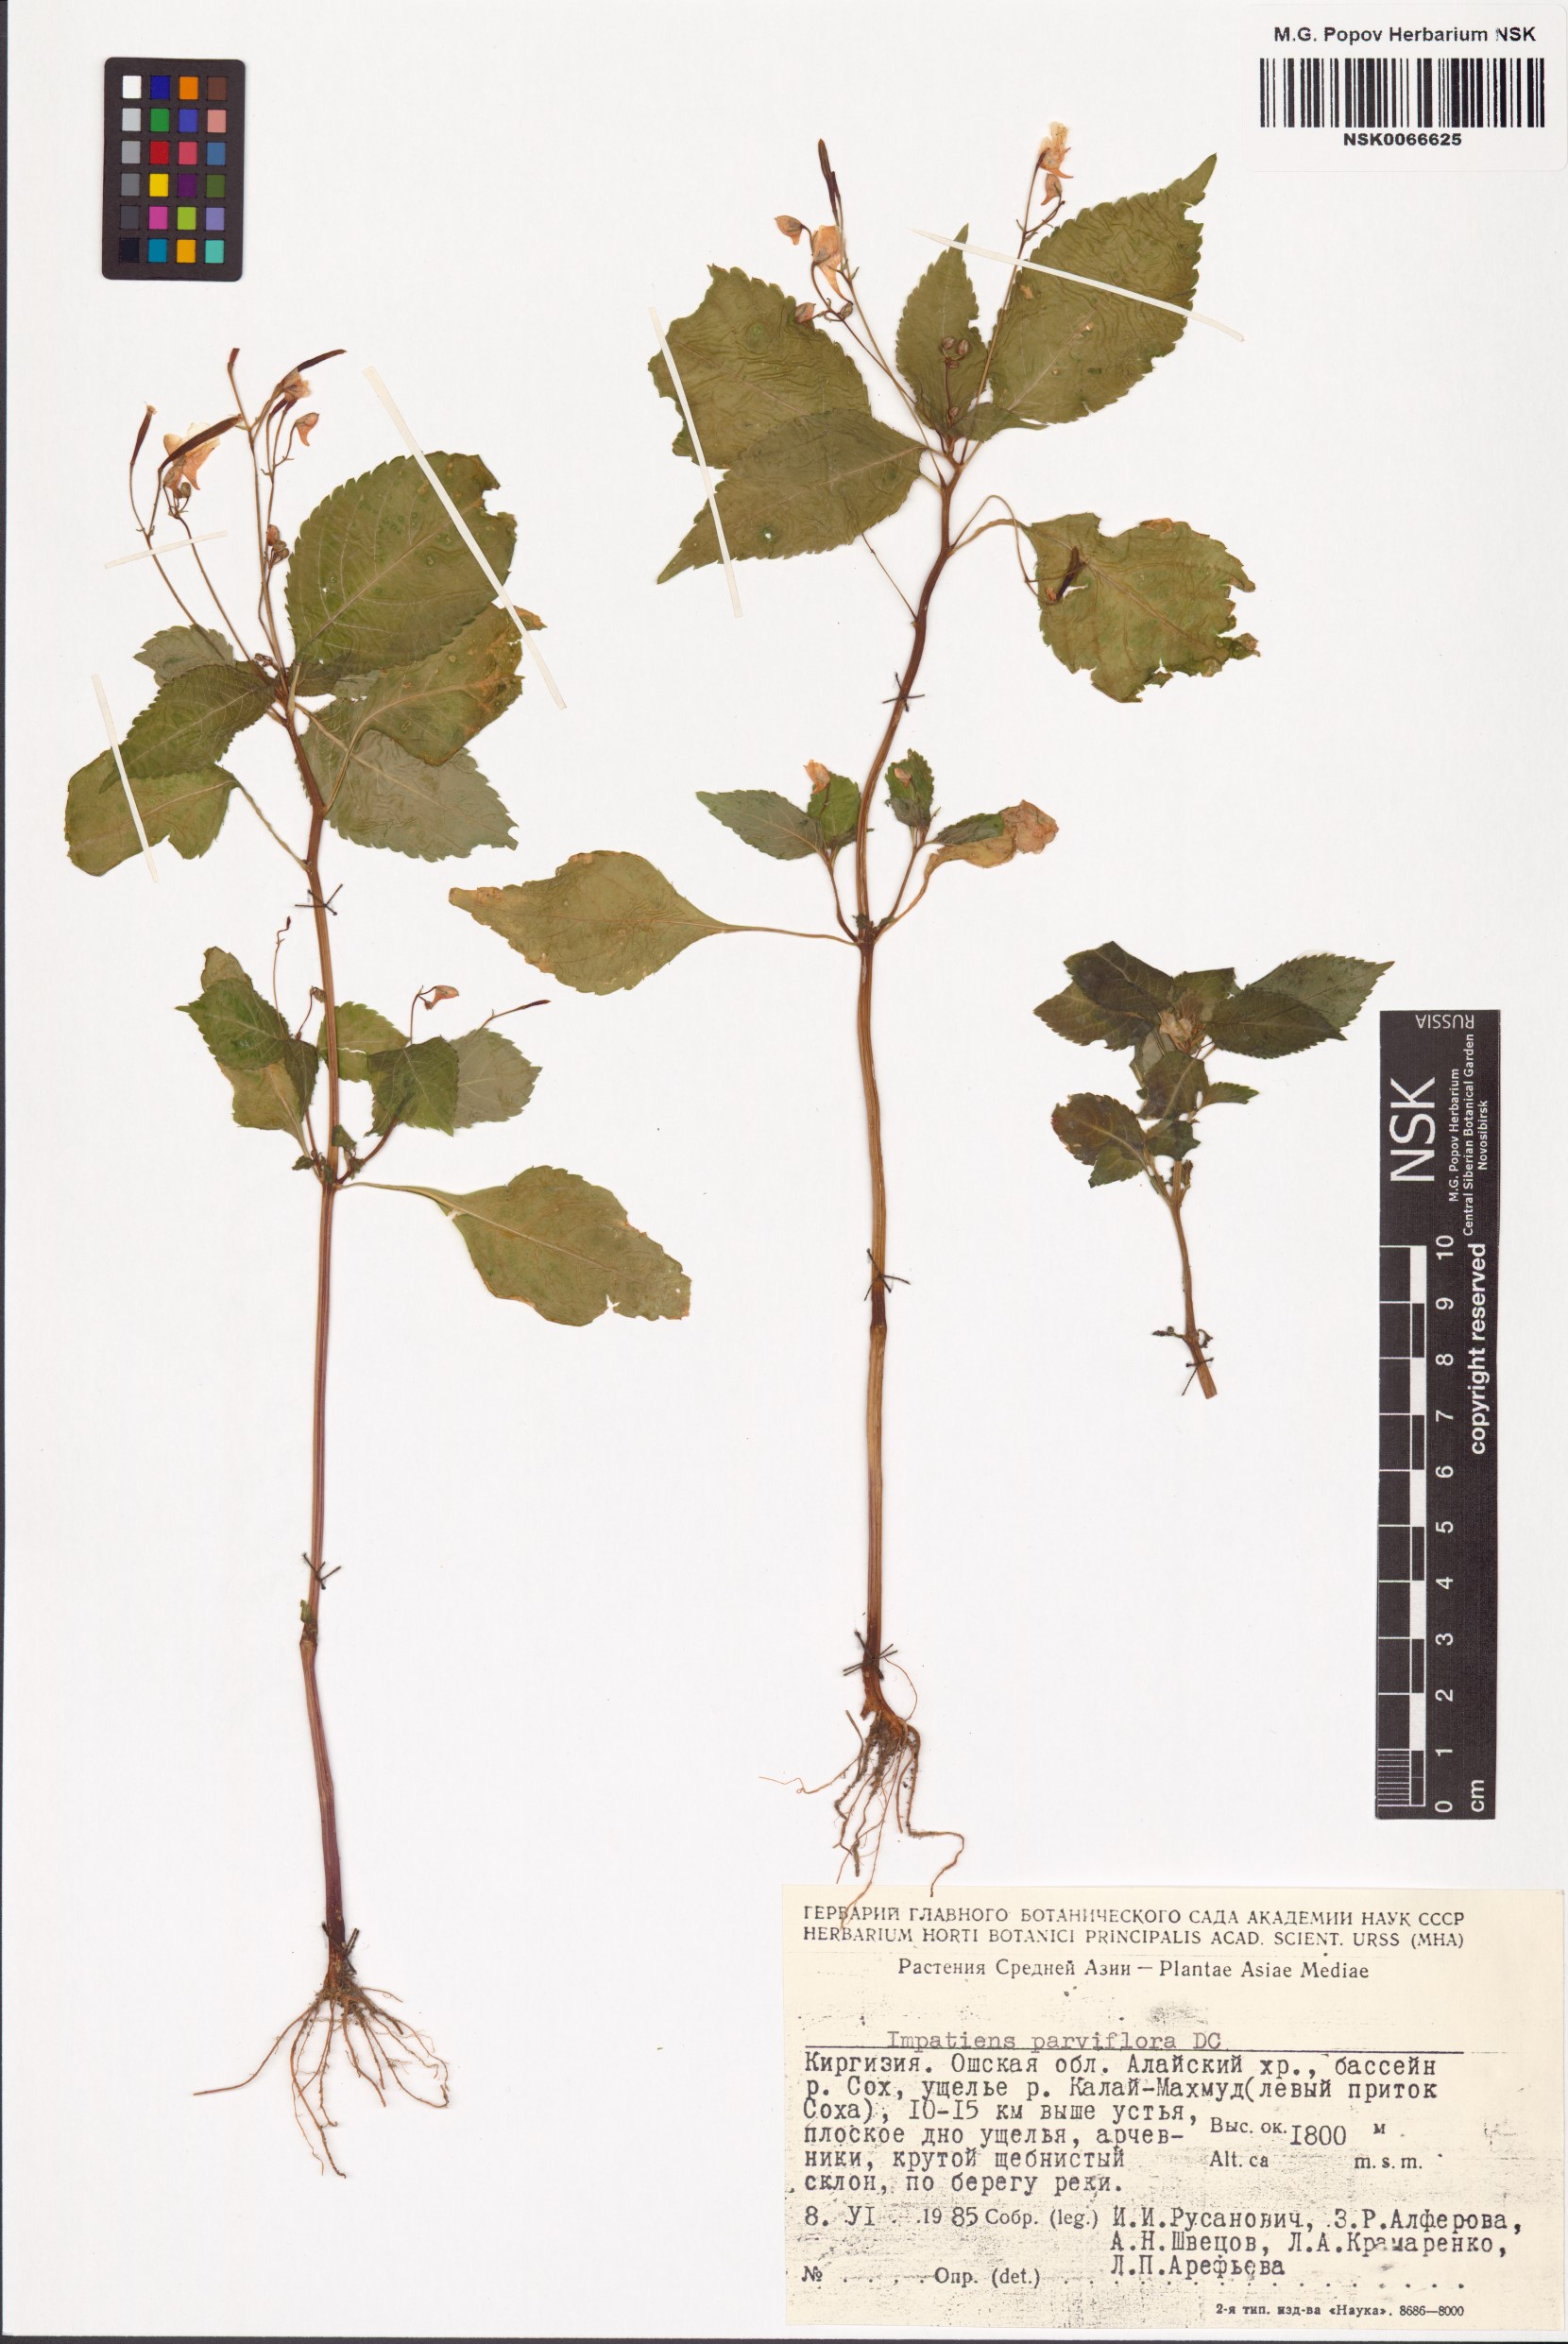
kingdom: Plantae
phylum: Tracheophyta
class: Magnoliopsida
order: Ericales
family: Balsaminaceae
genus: Impatiens
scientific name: Impatiens parviflora
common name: Small balsam
